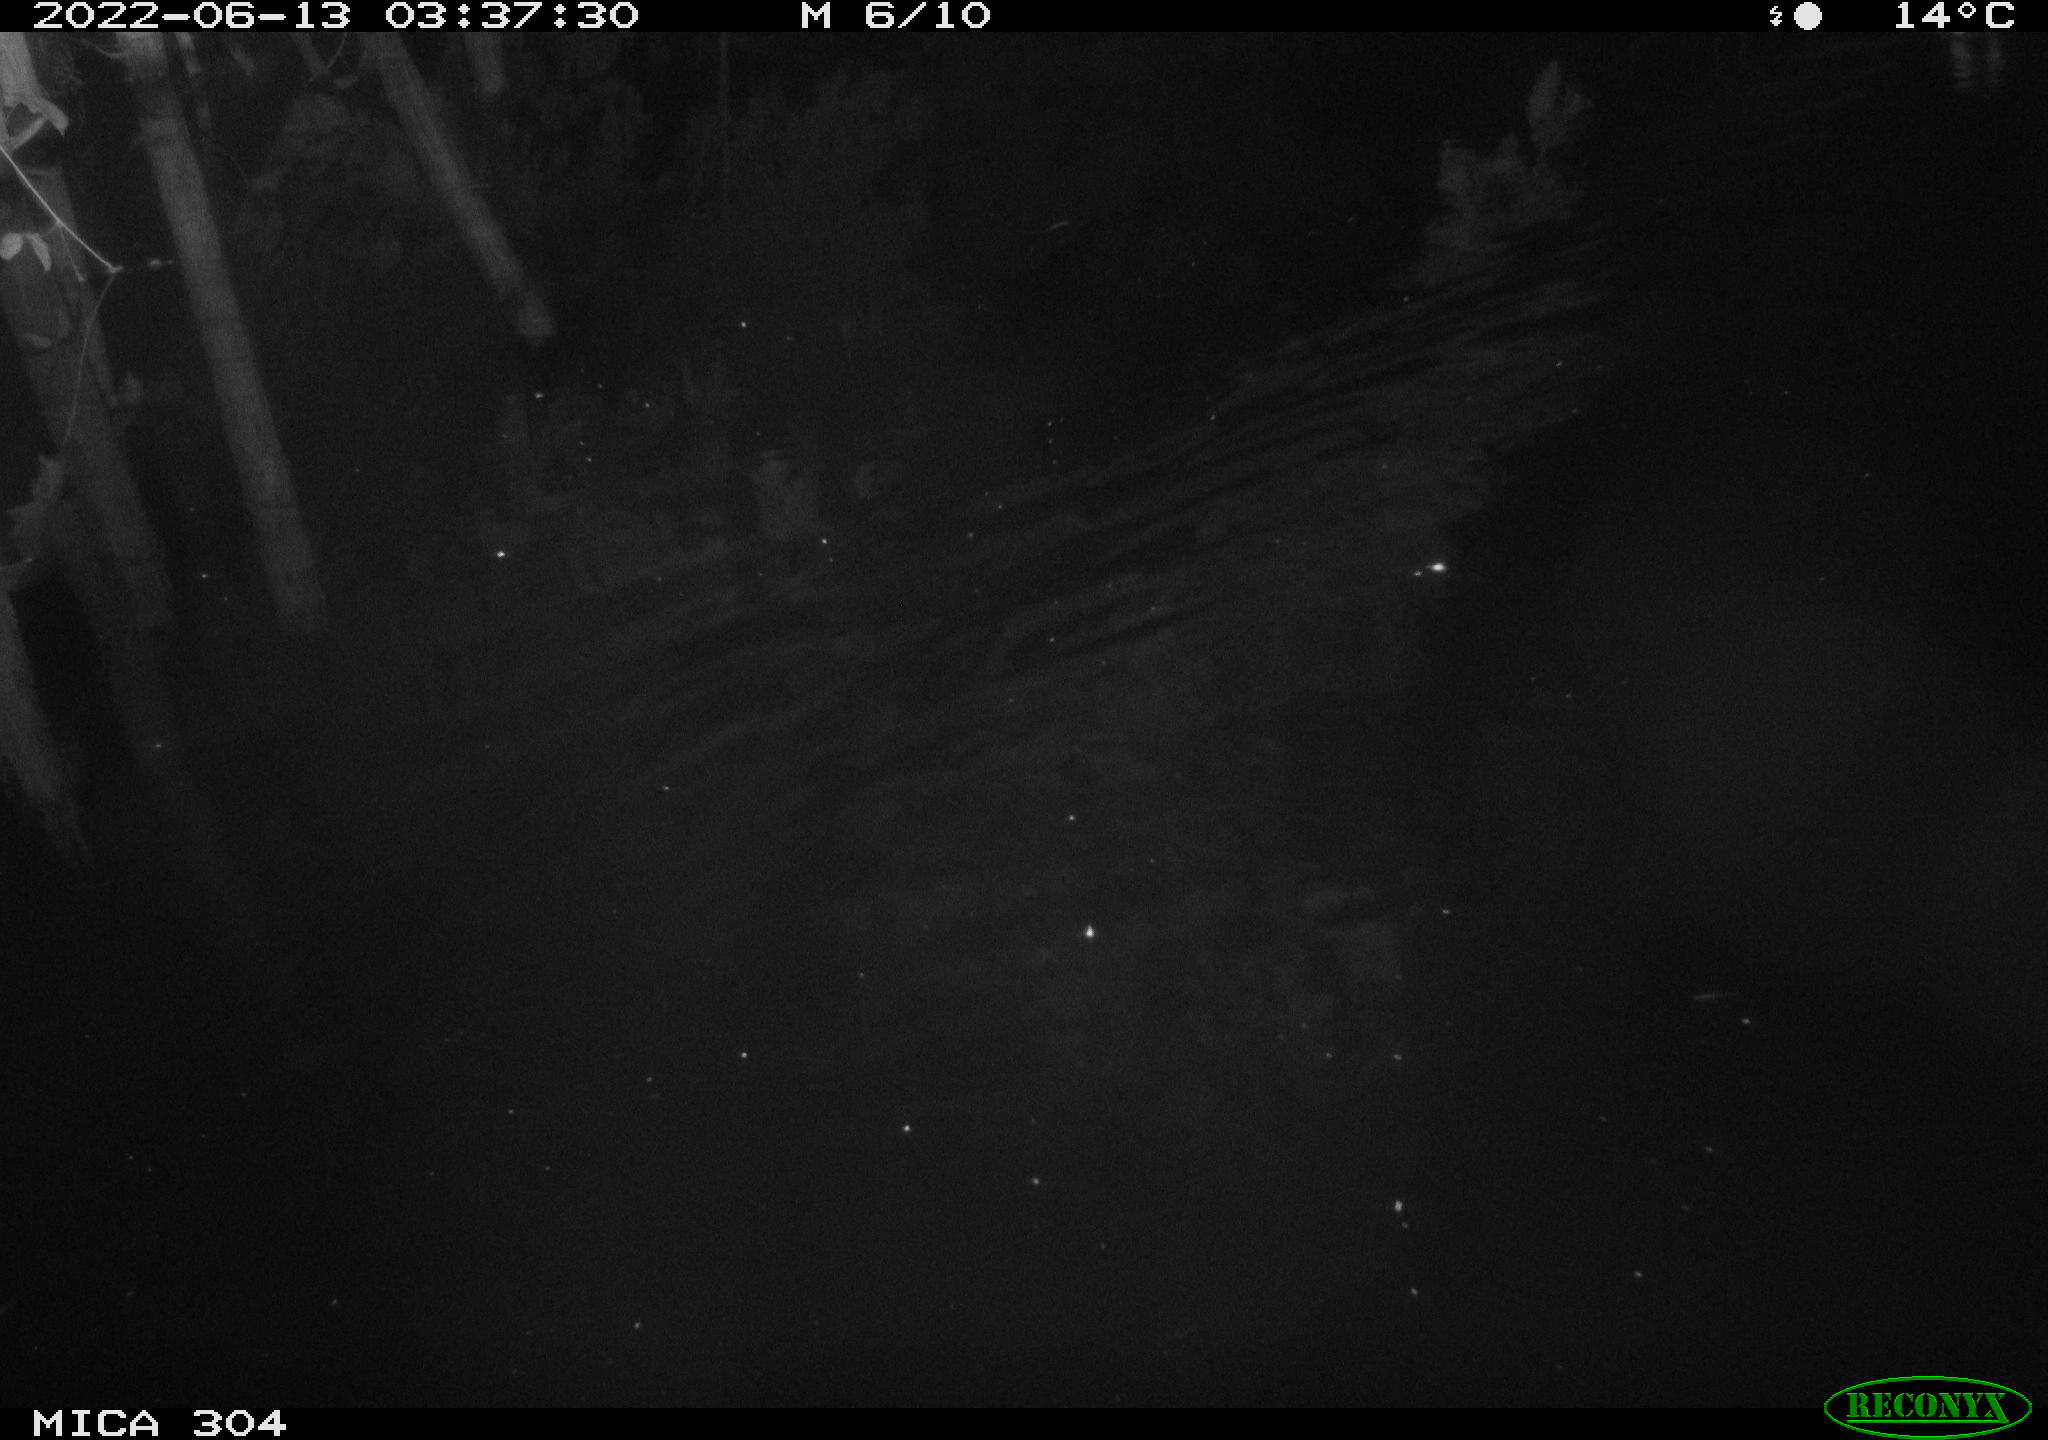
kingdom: Animalia
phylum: Chordata
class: Aves
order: Gruiformes
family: Rallidae
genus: Gallinula
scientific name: Gallinula chloropus
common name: Common moorhen
